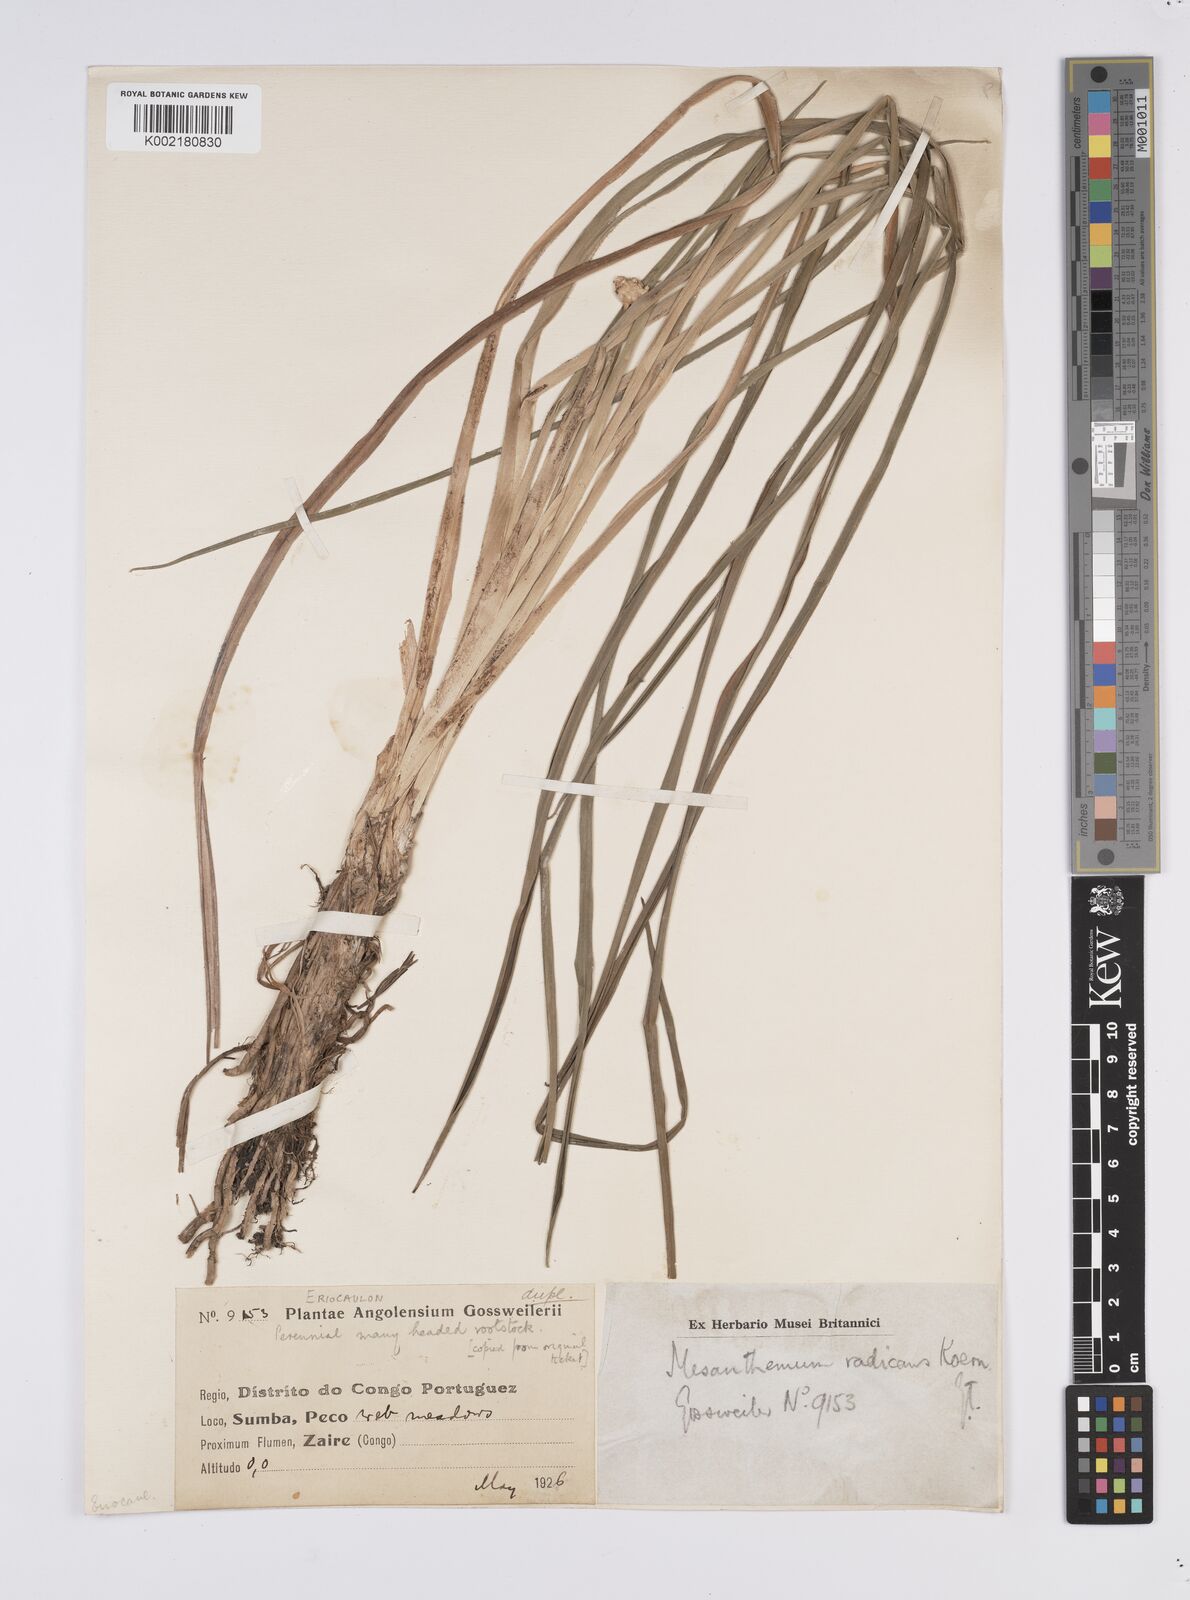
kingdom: Plantae
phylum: Tracheophyta
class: Liliopsida
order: Poales
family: Eriocaulaceae
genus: Mesanthemum
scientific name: Mesanthemum radicans
